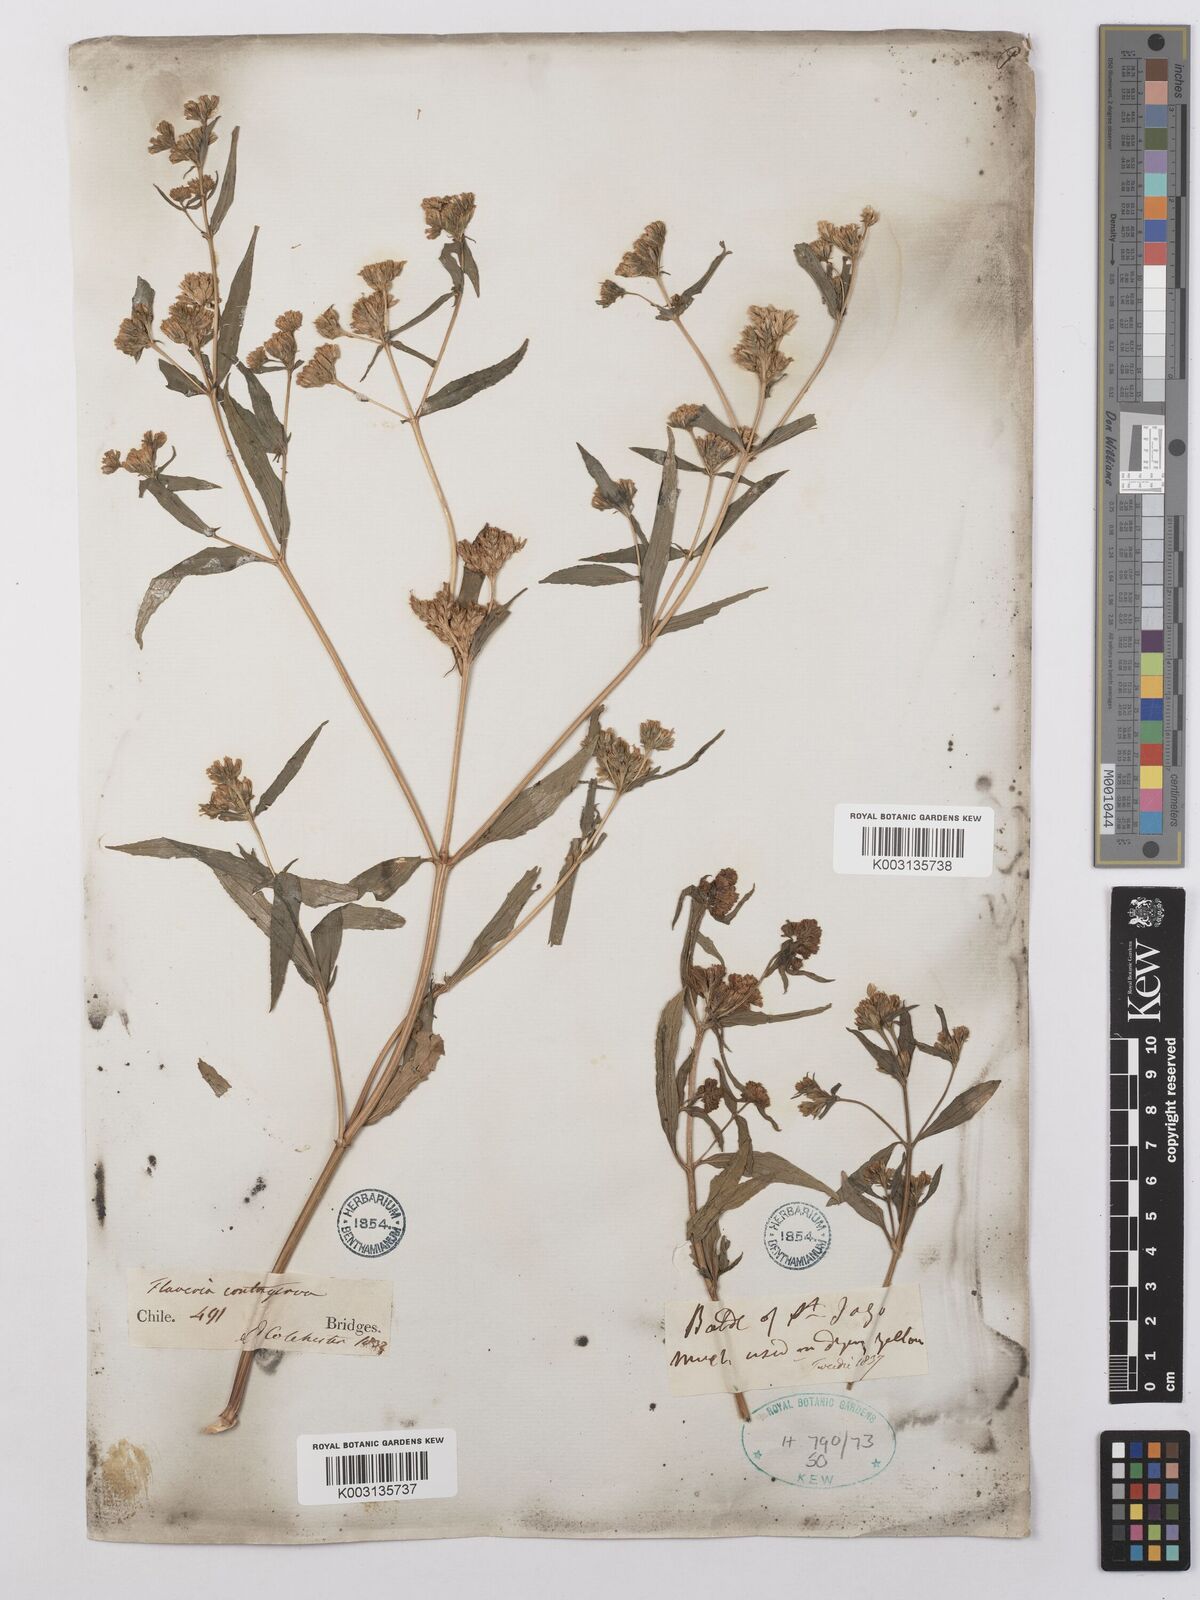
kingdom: Plantae
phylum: Tracheophyta
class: Magnoliopsida
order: Asterales
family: Asteraceae
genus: Flaveria
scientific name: Flaveria bidentis
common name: Coastal plain yellowtops
